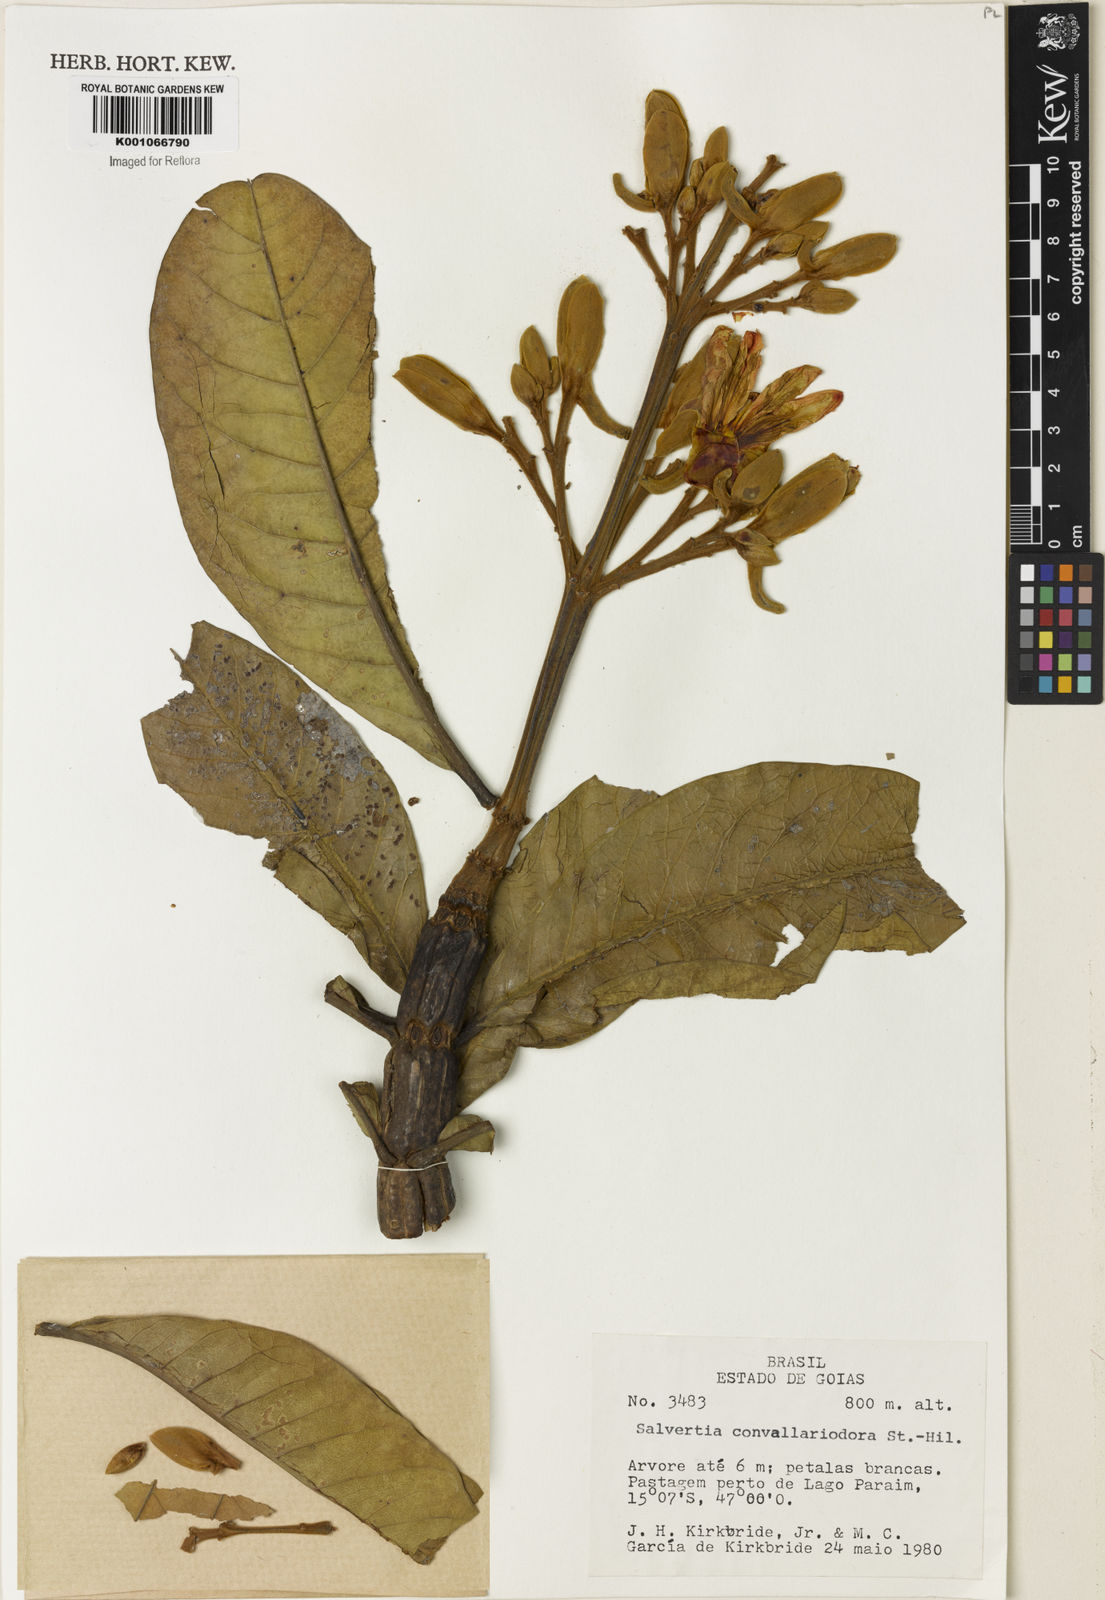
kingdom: Plantae
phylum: Tracheophyta
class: Magnoliopsida
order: Myrtales
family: Vochysiaceae
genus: Salvertia
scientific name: Salvertia convallariodora
